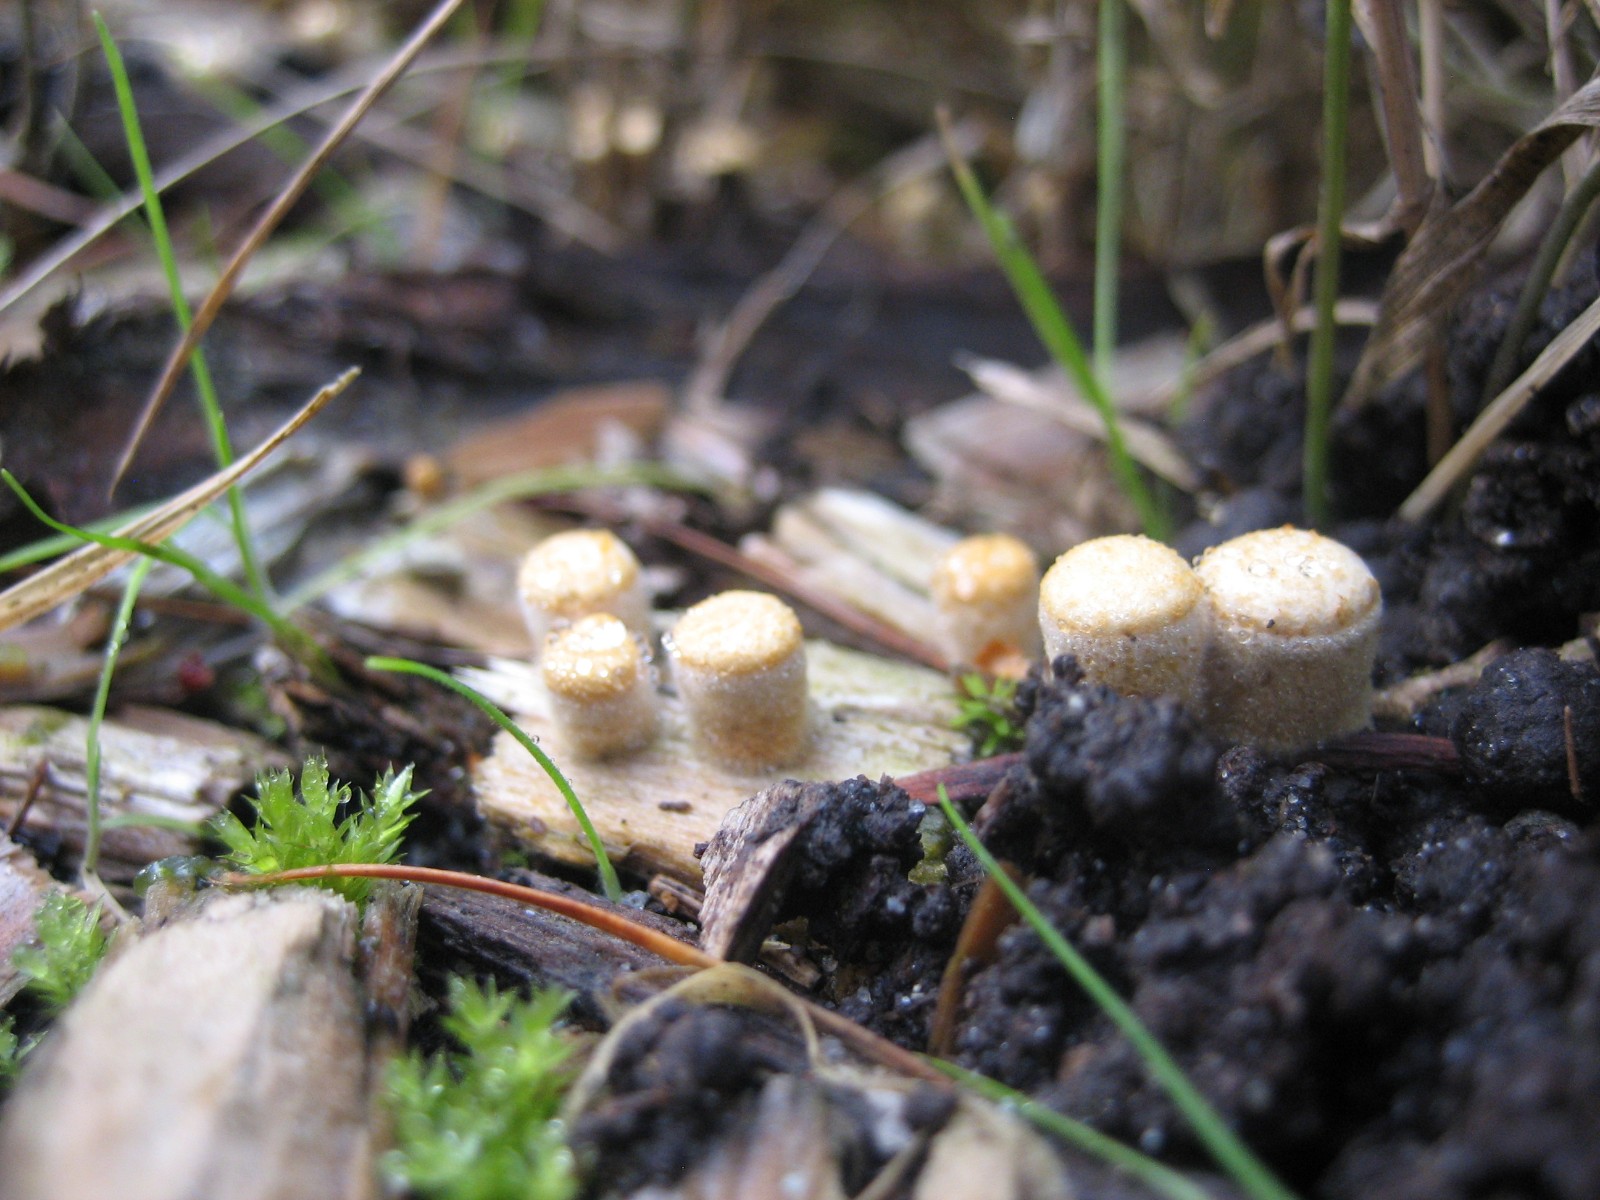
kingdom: Fungi
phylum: Basidiomycota
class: Agaricomycetes
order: Agaricales
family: Nidulariaceae
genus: Crucibulum
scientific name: Crucibulum crucibuliforme
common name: krukkesvamp
